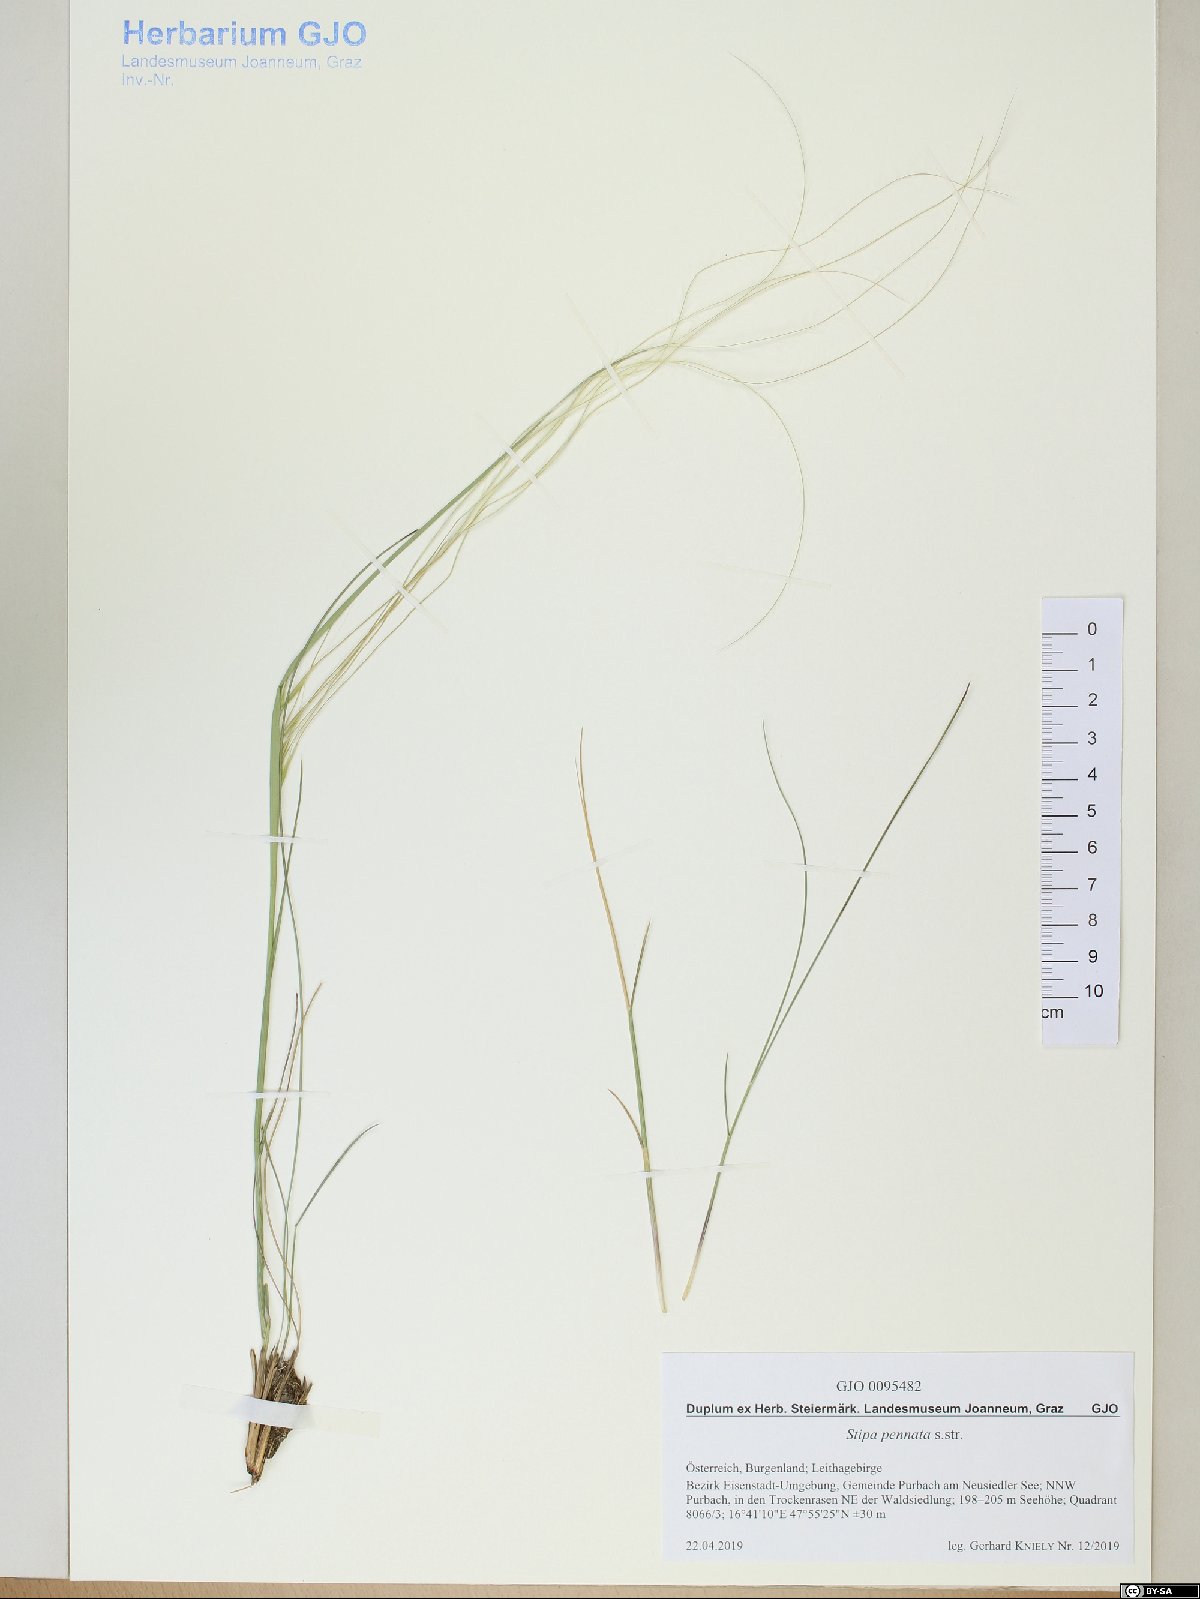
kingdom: Plantae
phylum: Tracheophyta
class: Magnoliopsida
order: Lamiales
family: Plantaginaceae
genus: Veronica
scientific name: Veronica vindobonensis
